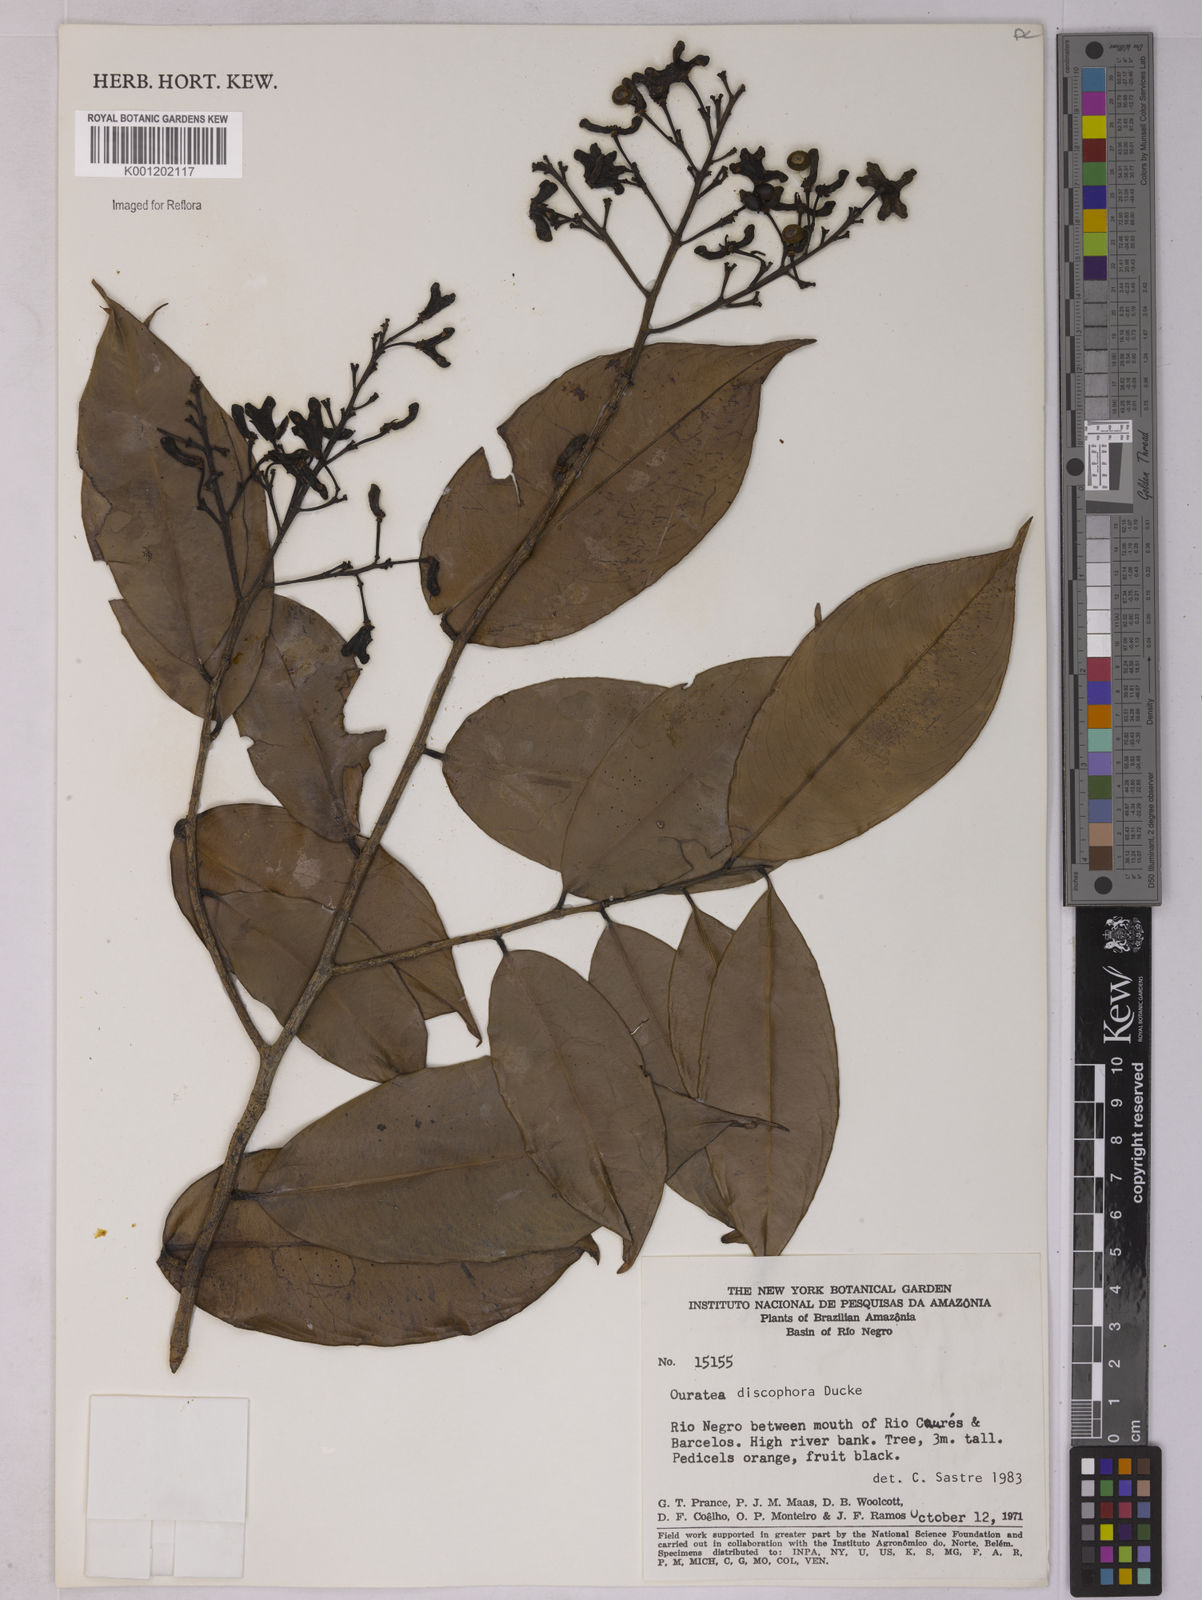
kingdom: Plantae
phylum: Tracheophyta
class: Magnoliopsida
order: Malpighiales
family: Ochnaceae
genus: Ouratea
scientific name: Ouratea discophora
